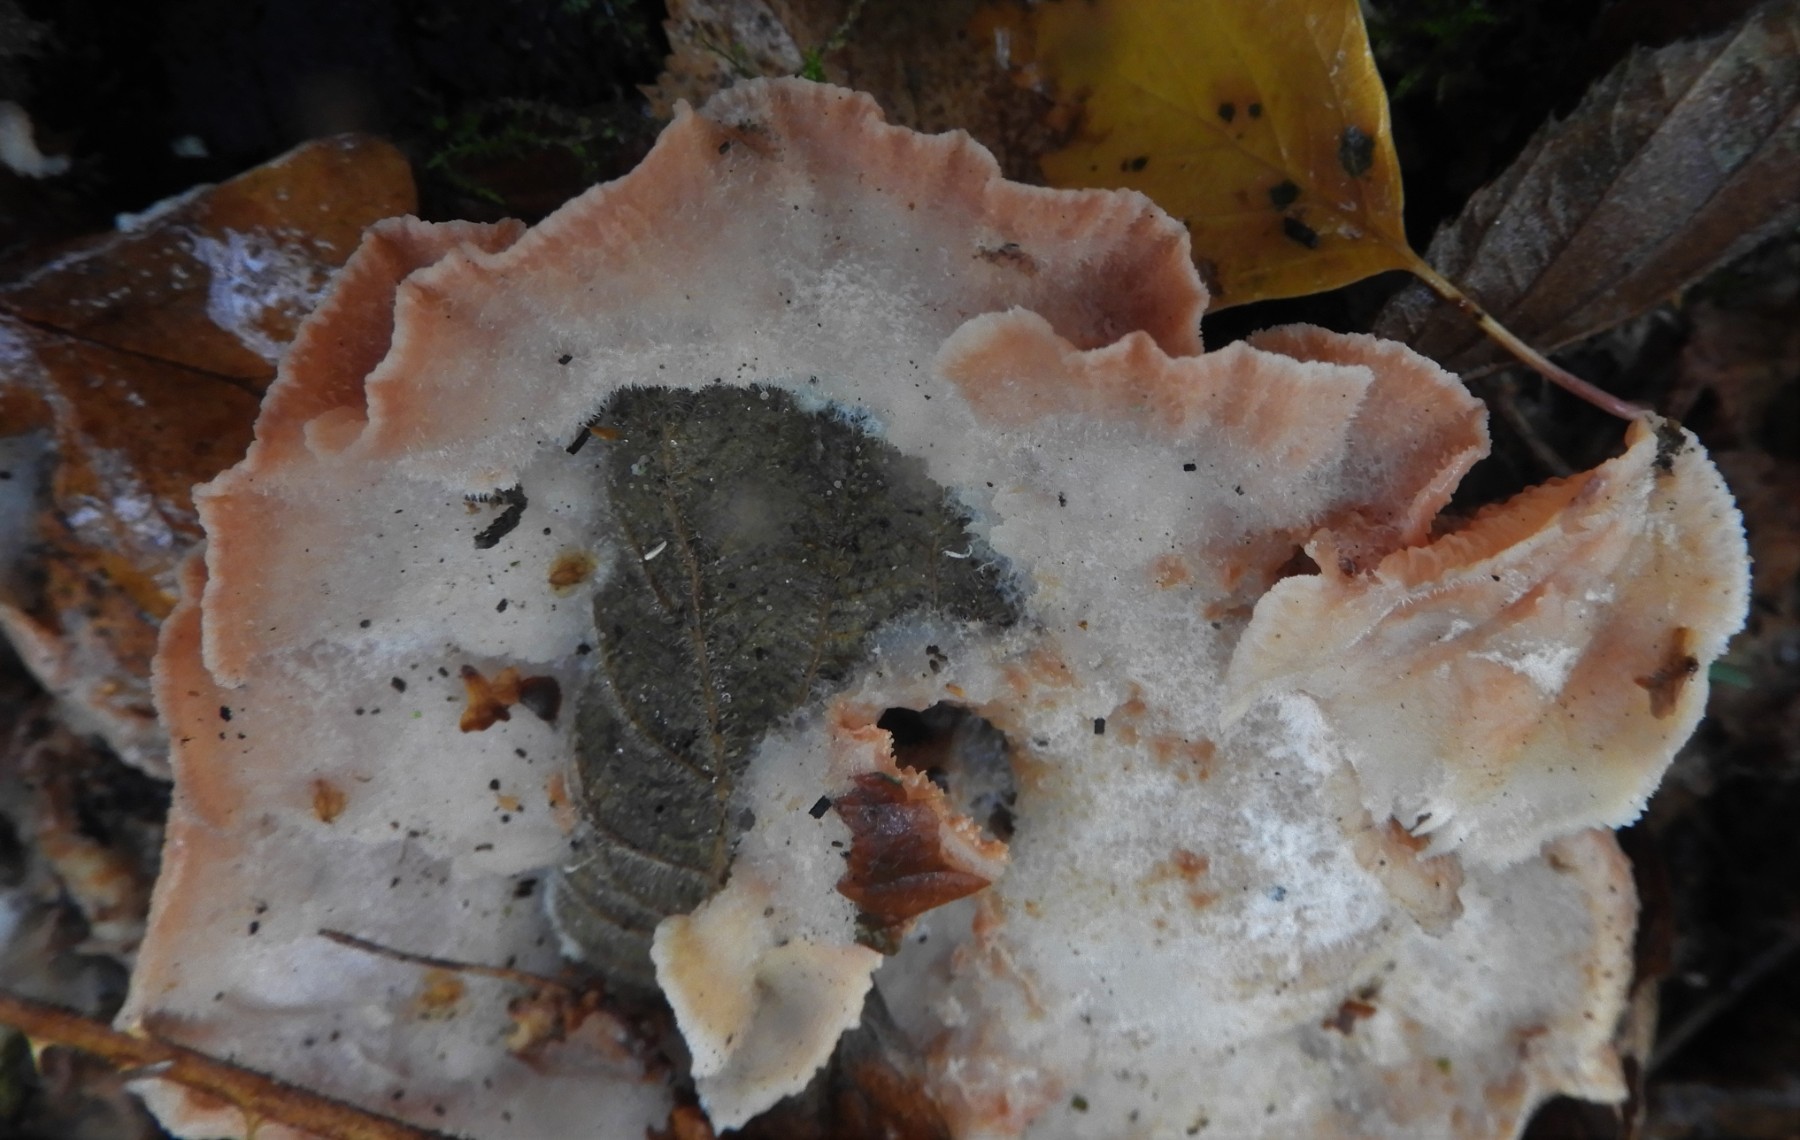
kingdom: Fungi
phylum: Basidiomycota
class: Agaricomycetes
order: Polyporales
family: Meruliaceae
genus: Phlebia
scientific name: Phlebia tremellosa
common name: bævrende åresvamp
